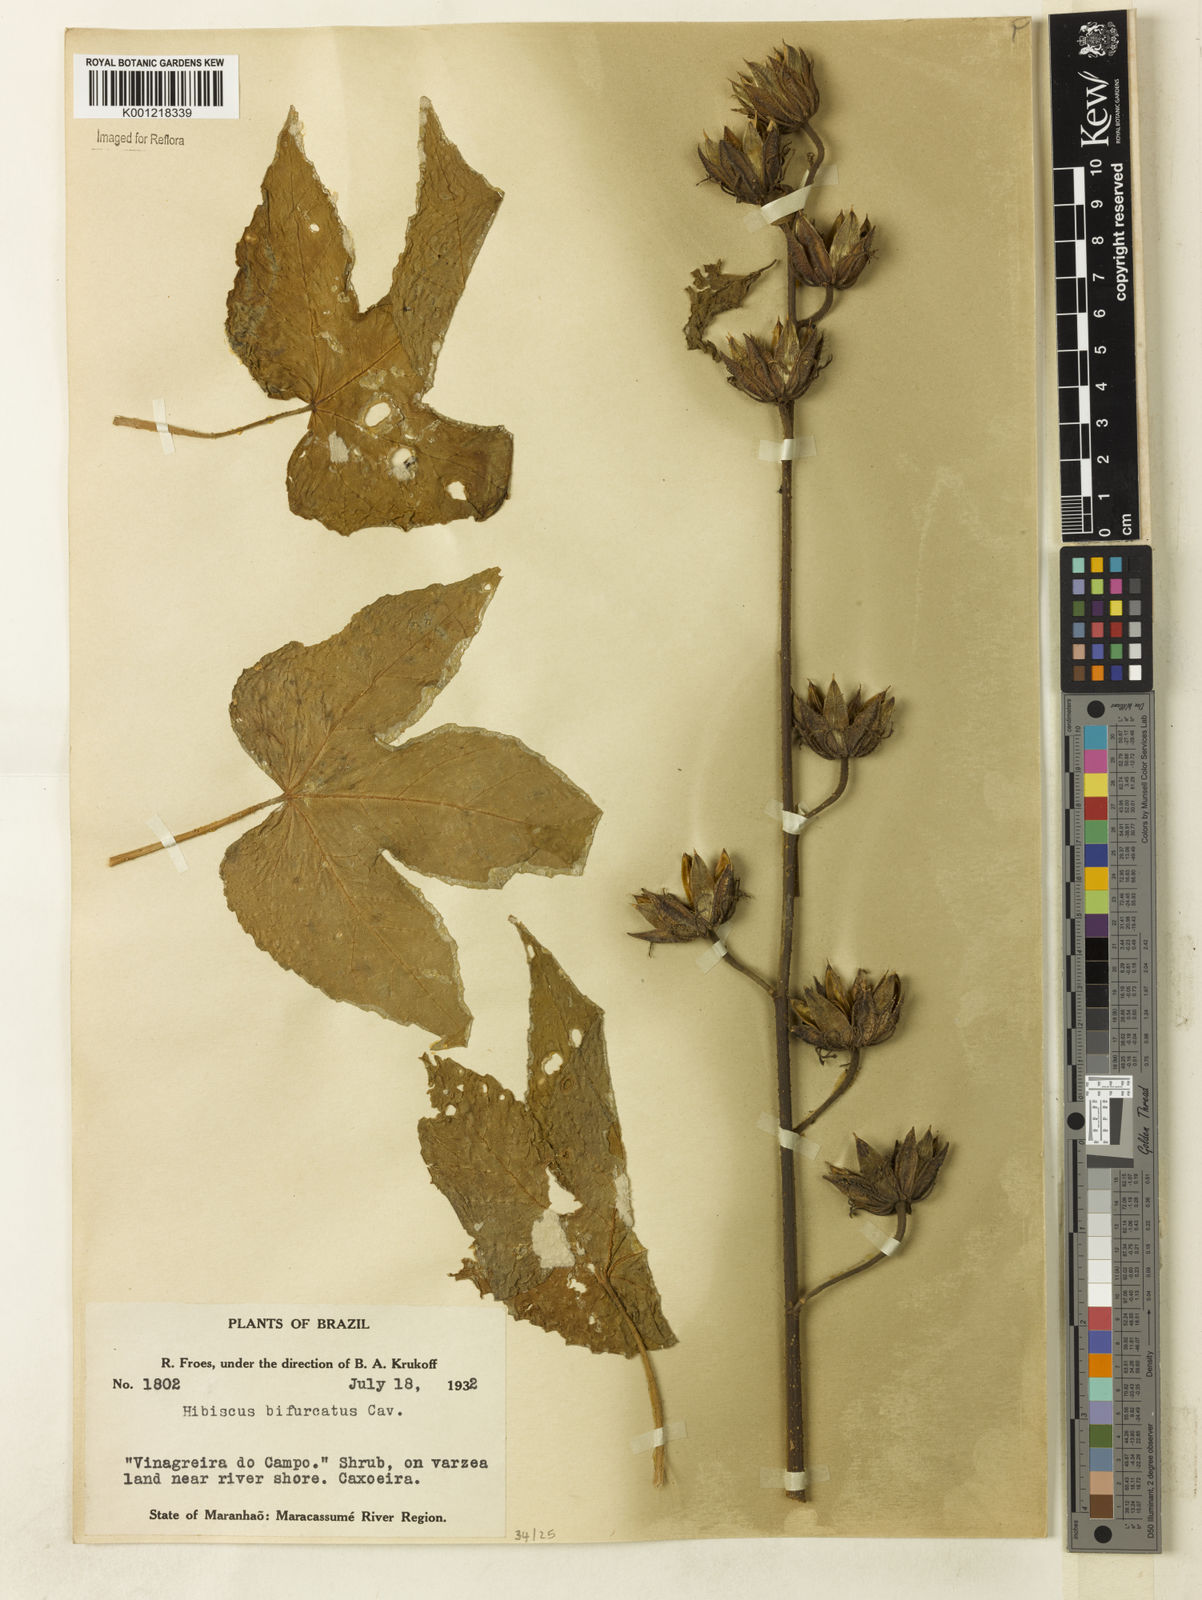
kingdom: Plantae
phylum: Tracheophyta
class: Magnoliopsida
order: Malvales
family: Malvaceae
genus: Hibiscus
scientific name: Hibiscus bifurcatus
